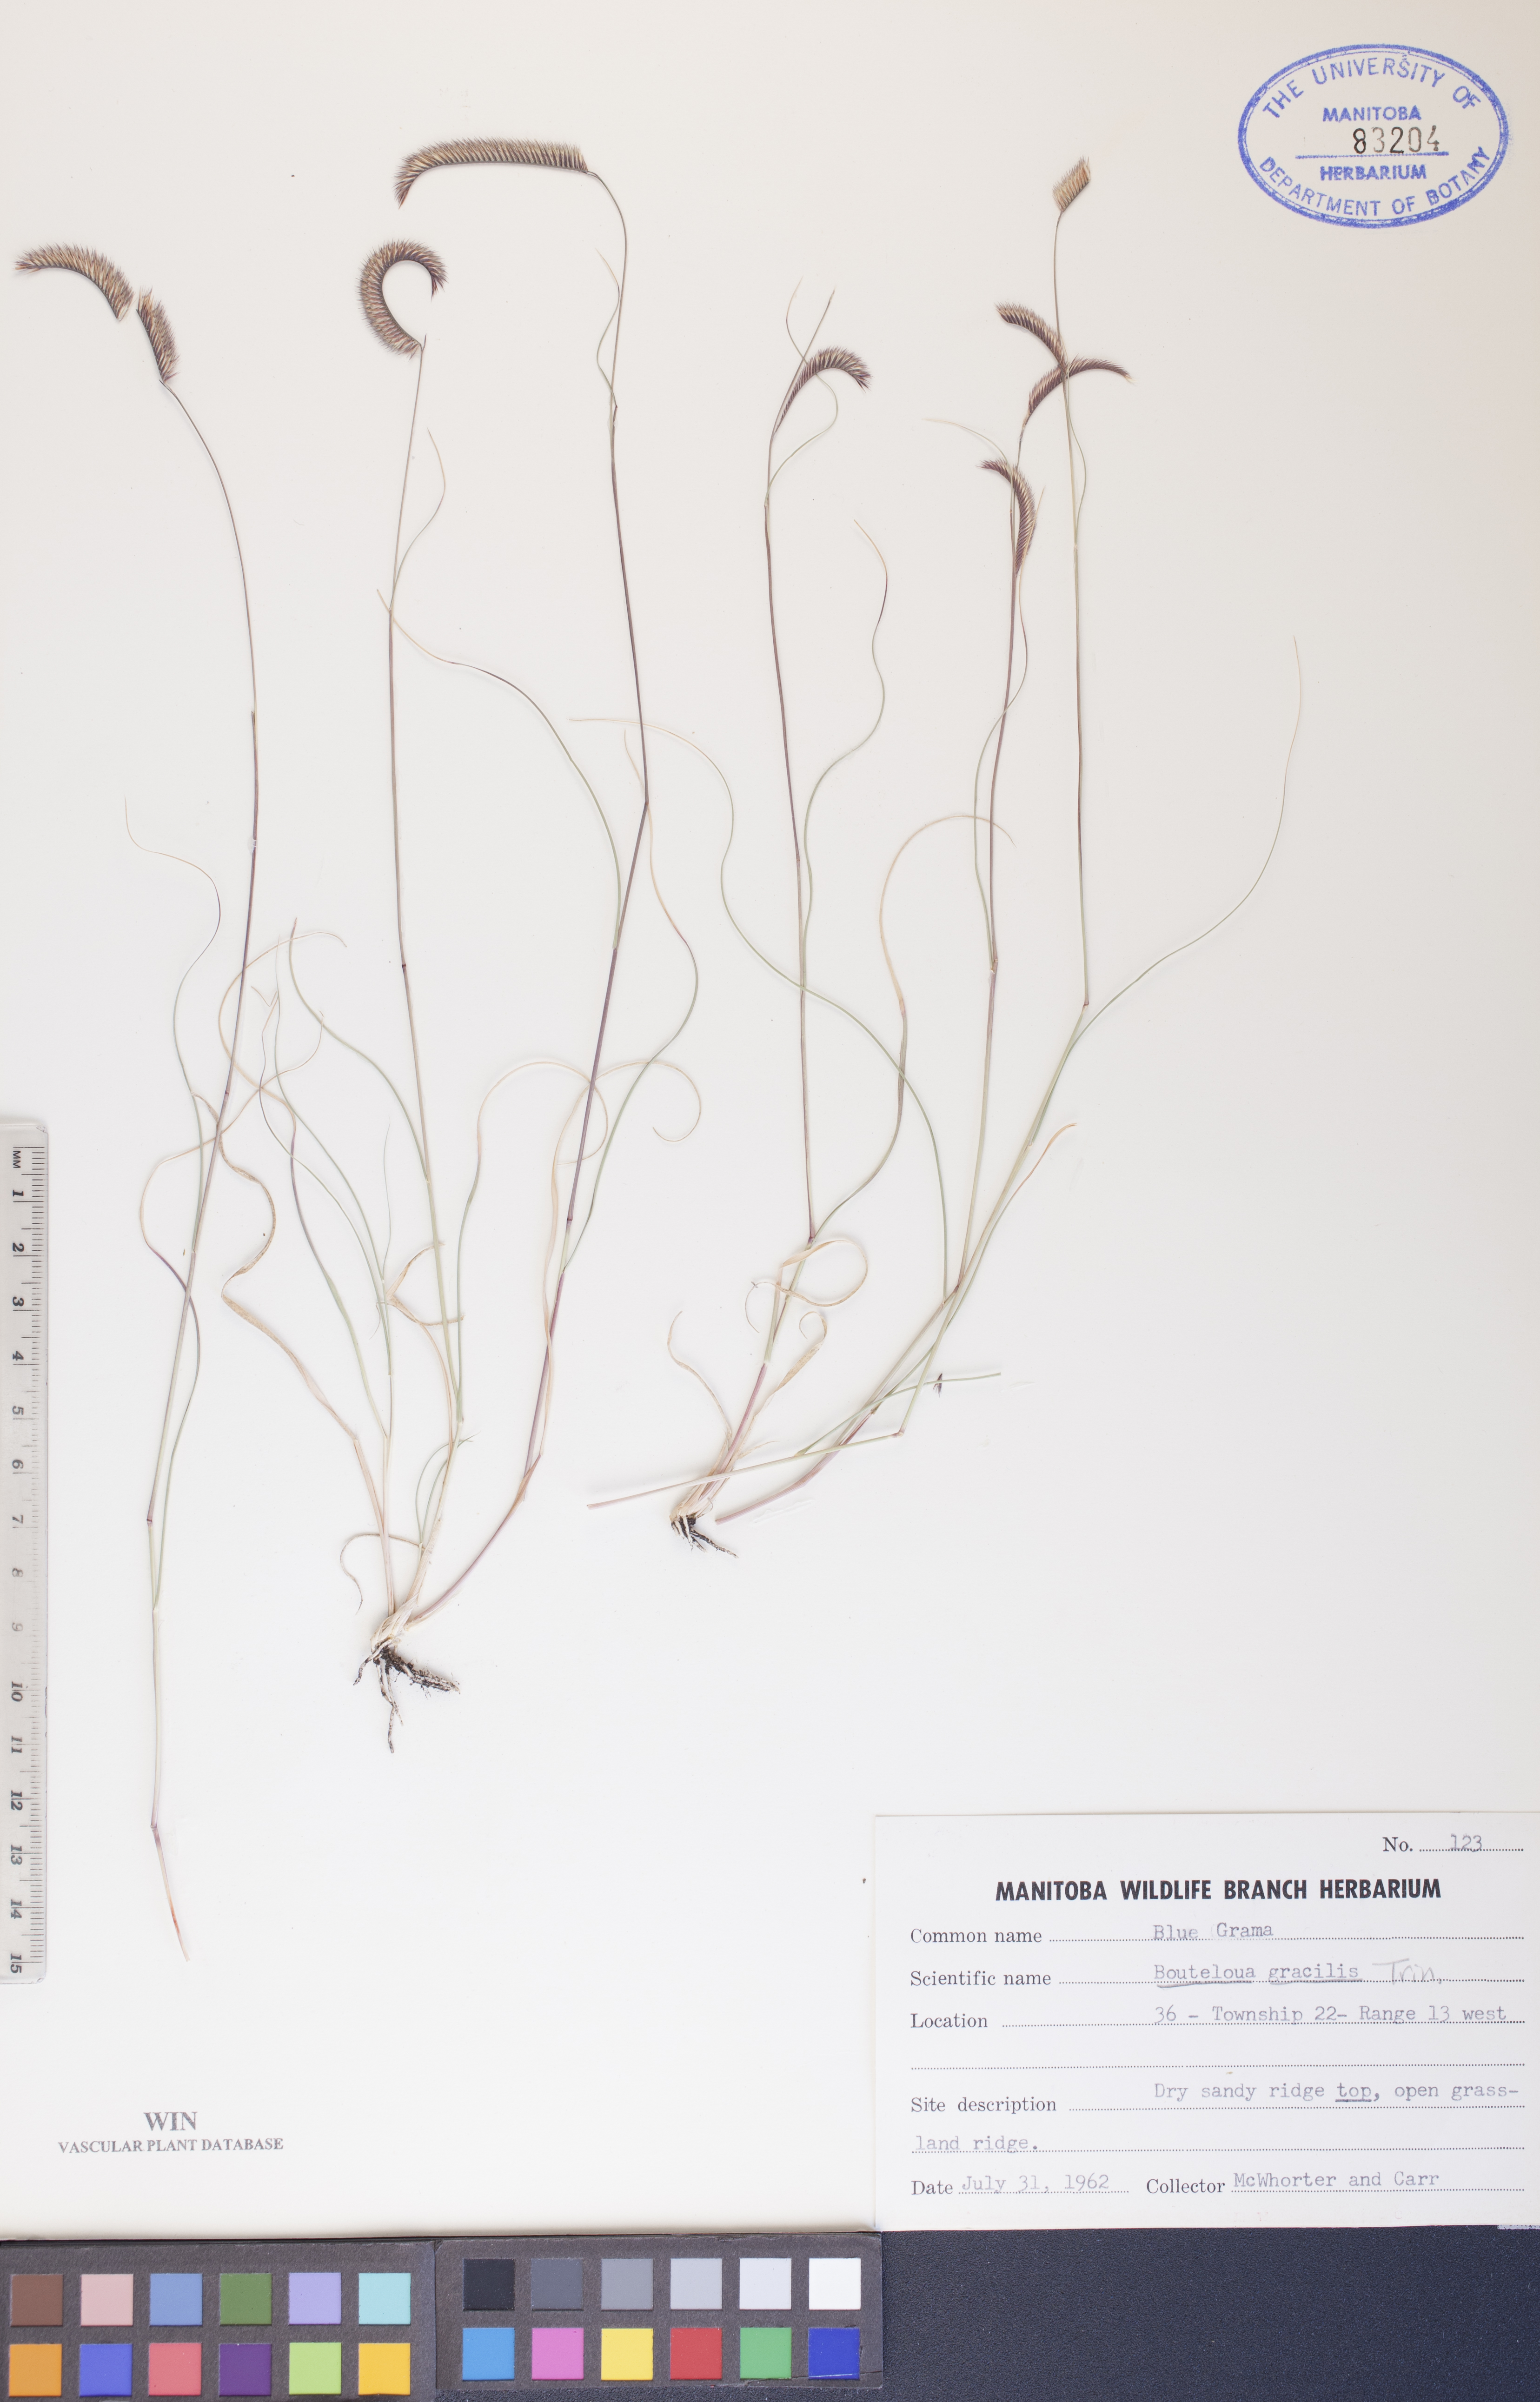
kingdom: Plantae
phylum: Tracheophyta
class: Liliopsida
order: Poales
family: Poaceae
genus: Bouteloua
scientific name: Bouteloua gracilis
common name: Blue grama
